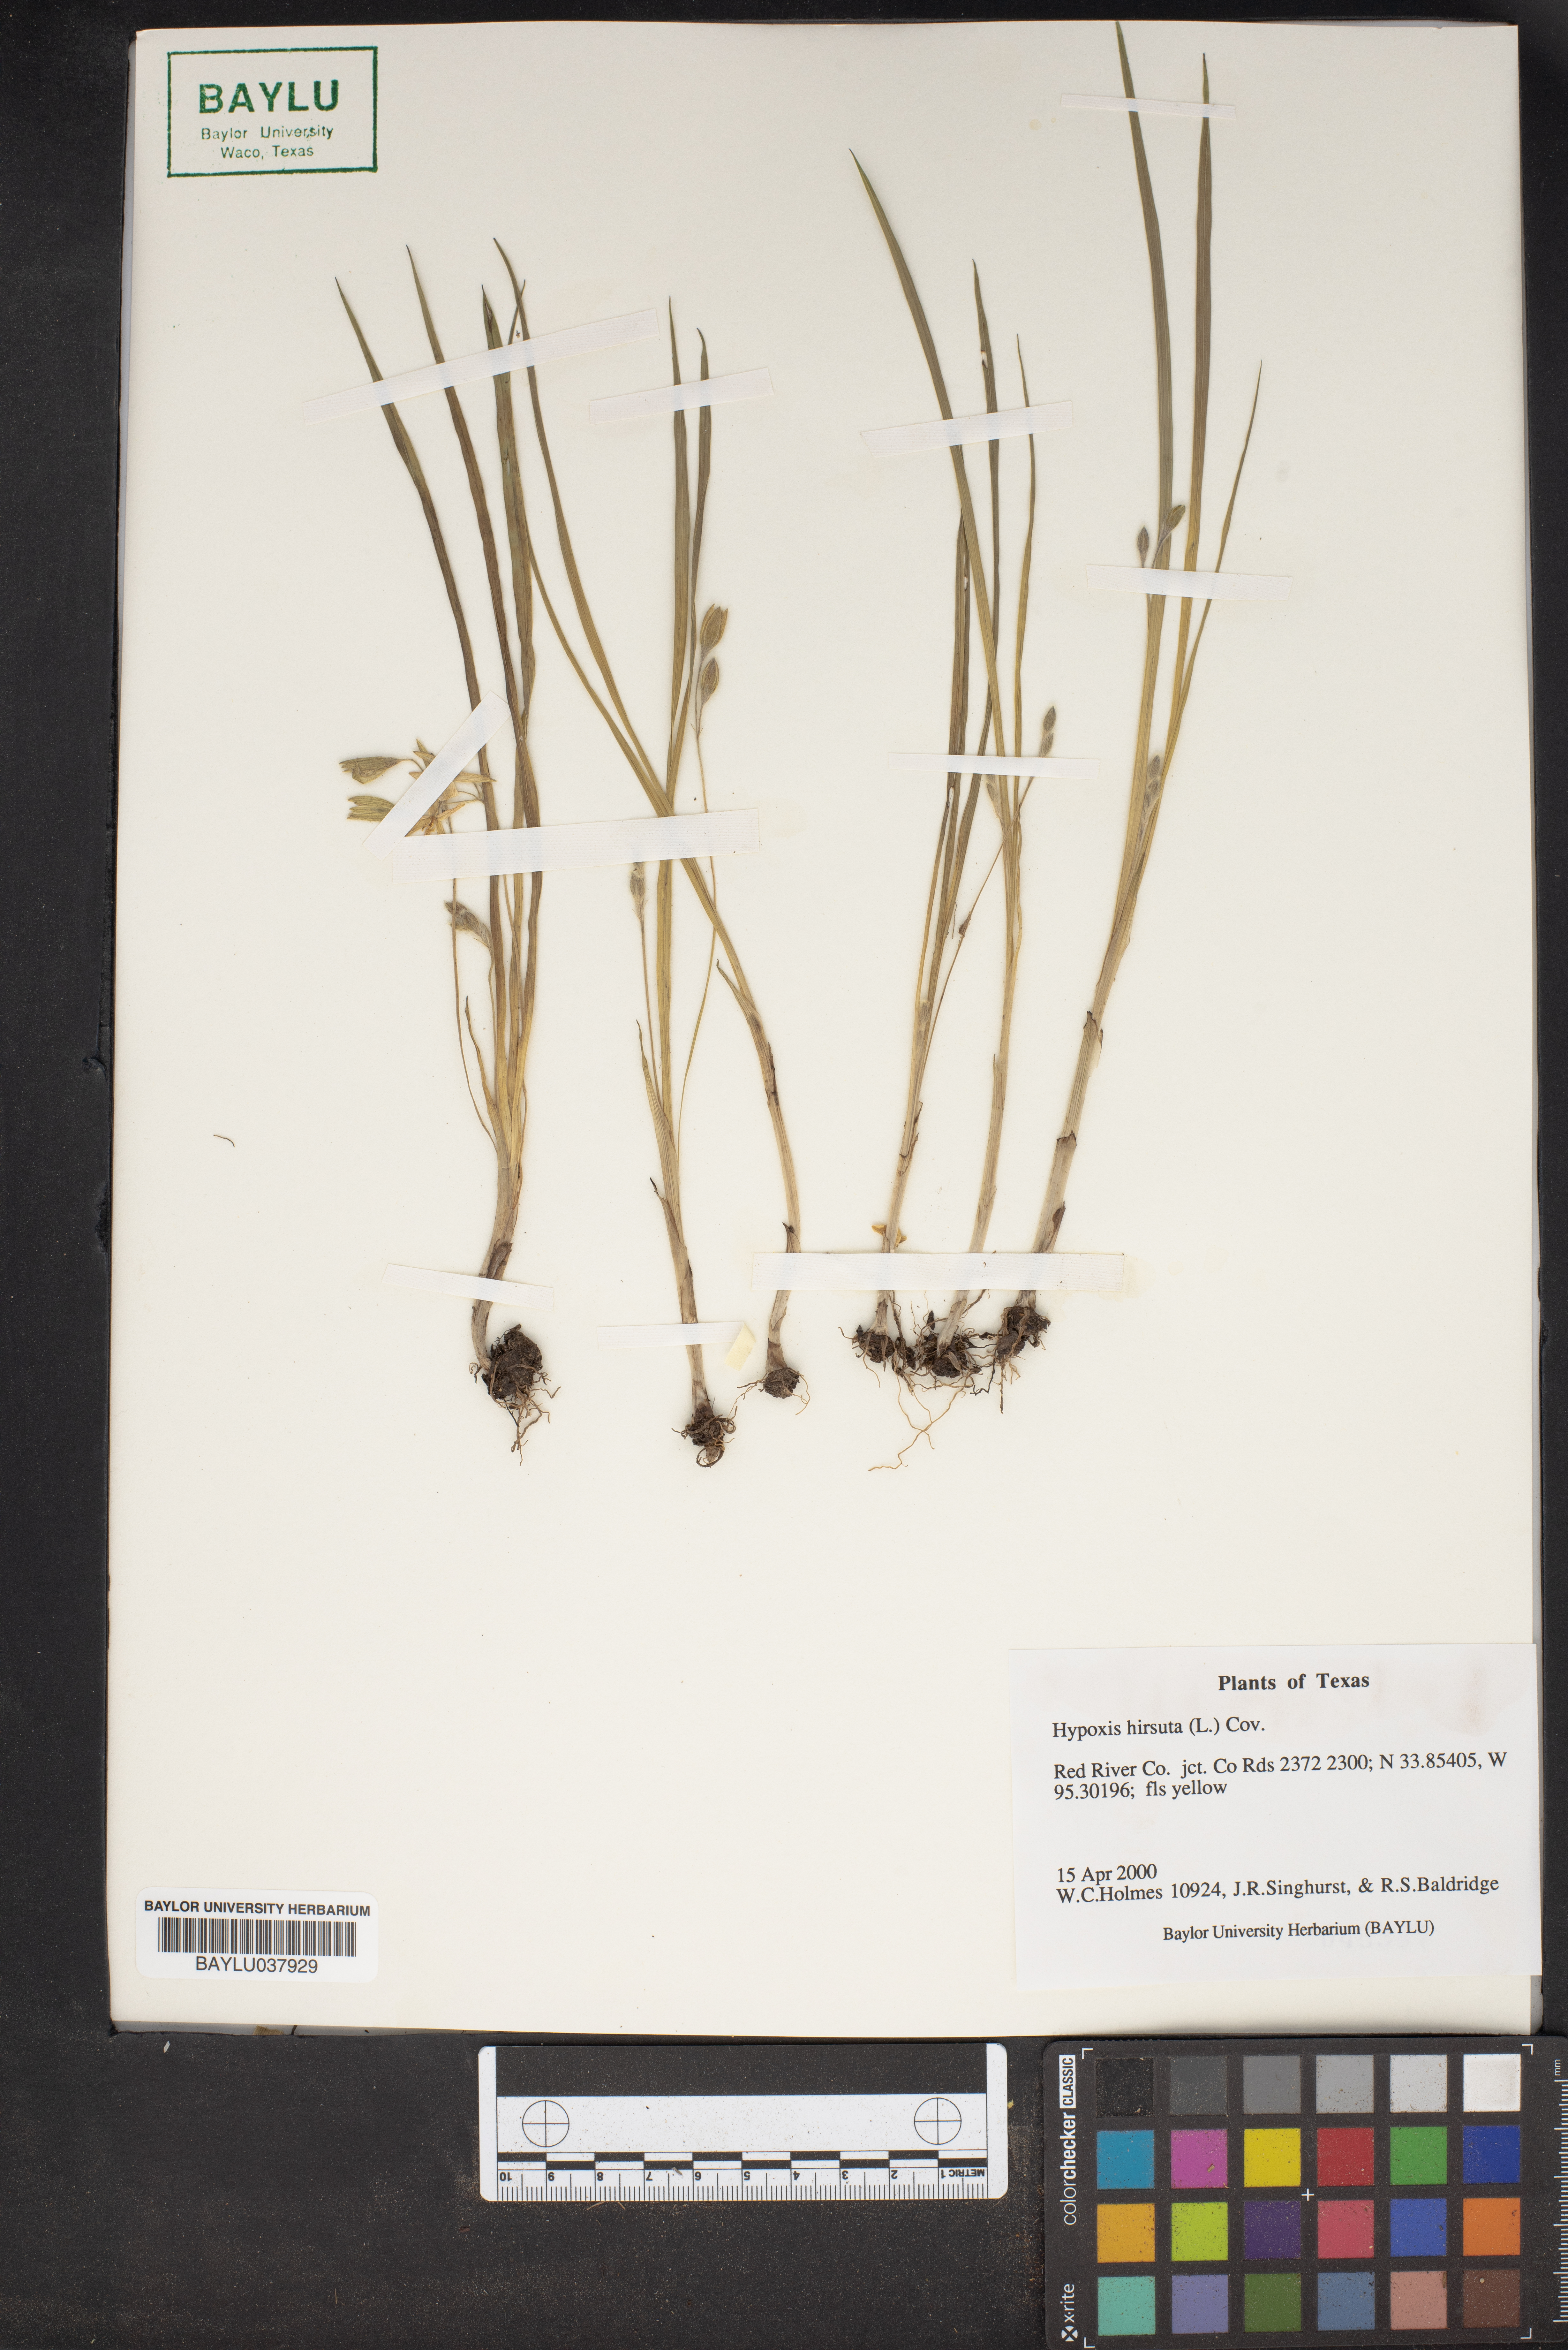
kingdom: Plantae
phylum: Tracheophyta
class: Liliopsida
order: Asparagales
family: Hypoxidaceae
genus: Hypoxis
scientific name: Hypoxis hirsuta
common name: Common goldstar
